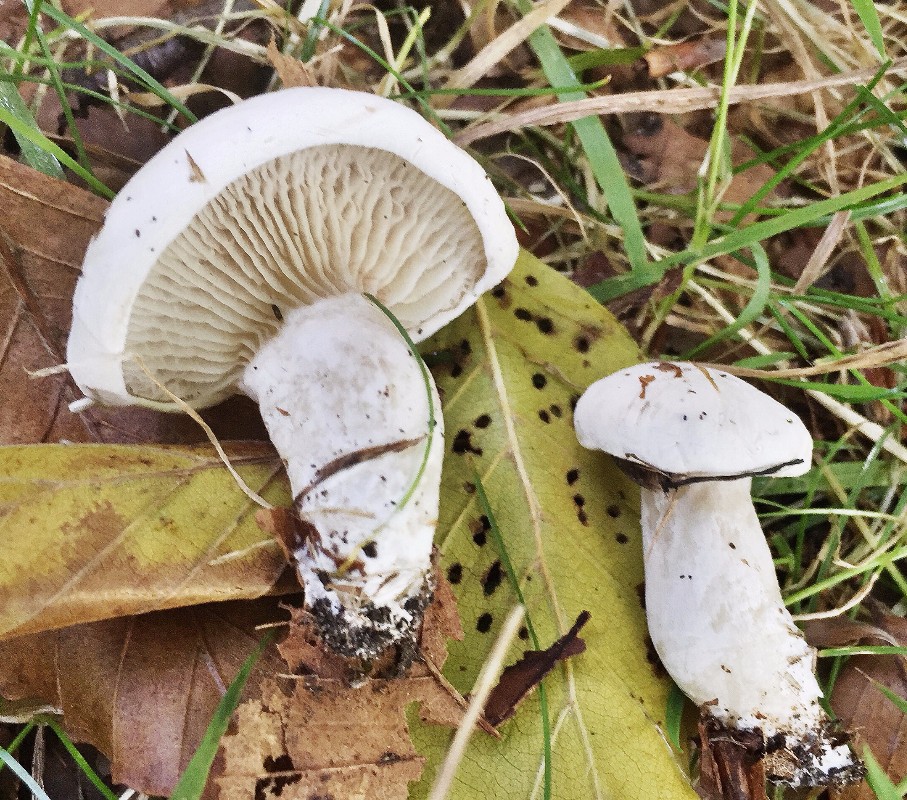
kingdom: Fungi
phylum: Basidiomycota
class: Agaricomycetes
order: Agaricales
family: Entolomataceae
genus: Clitopilus
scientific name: Clitopilus prunulus
